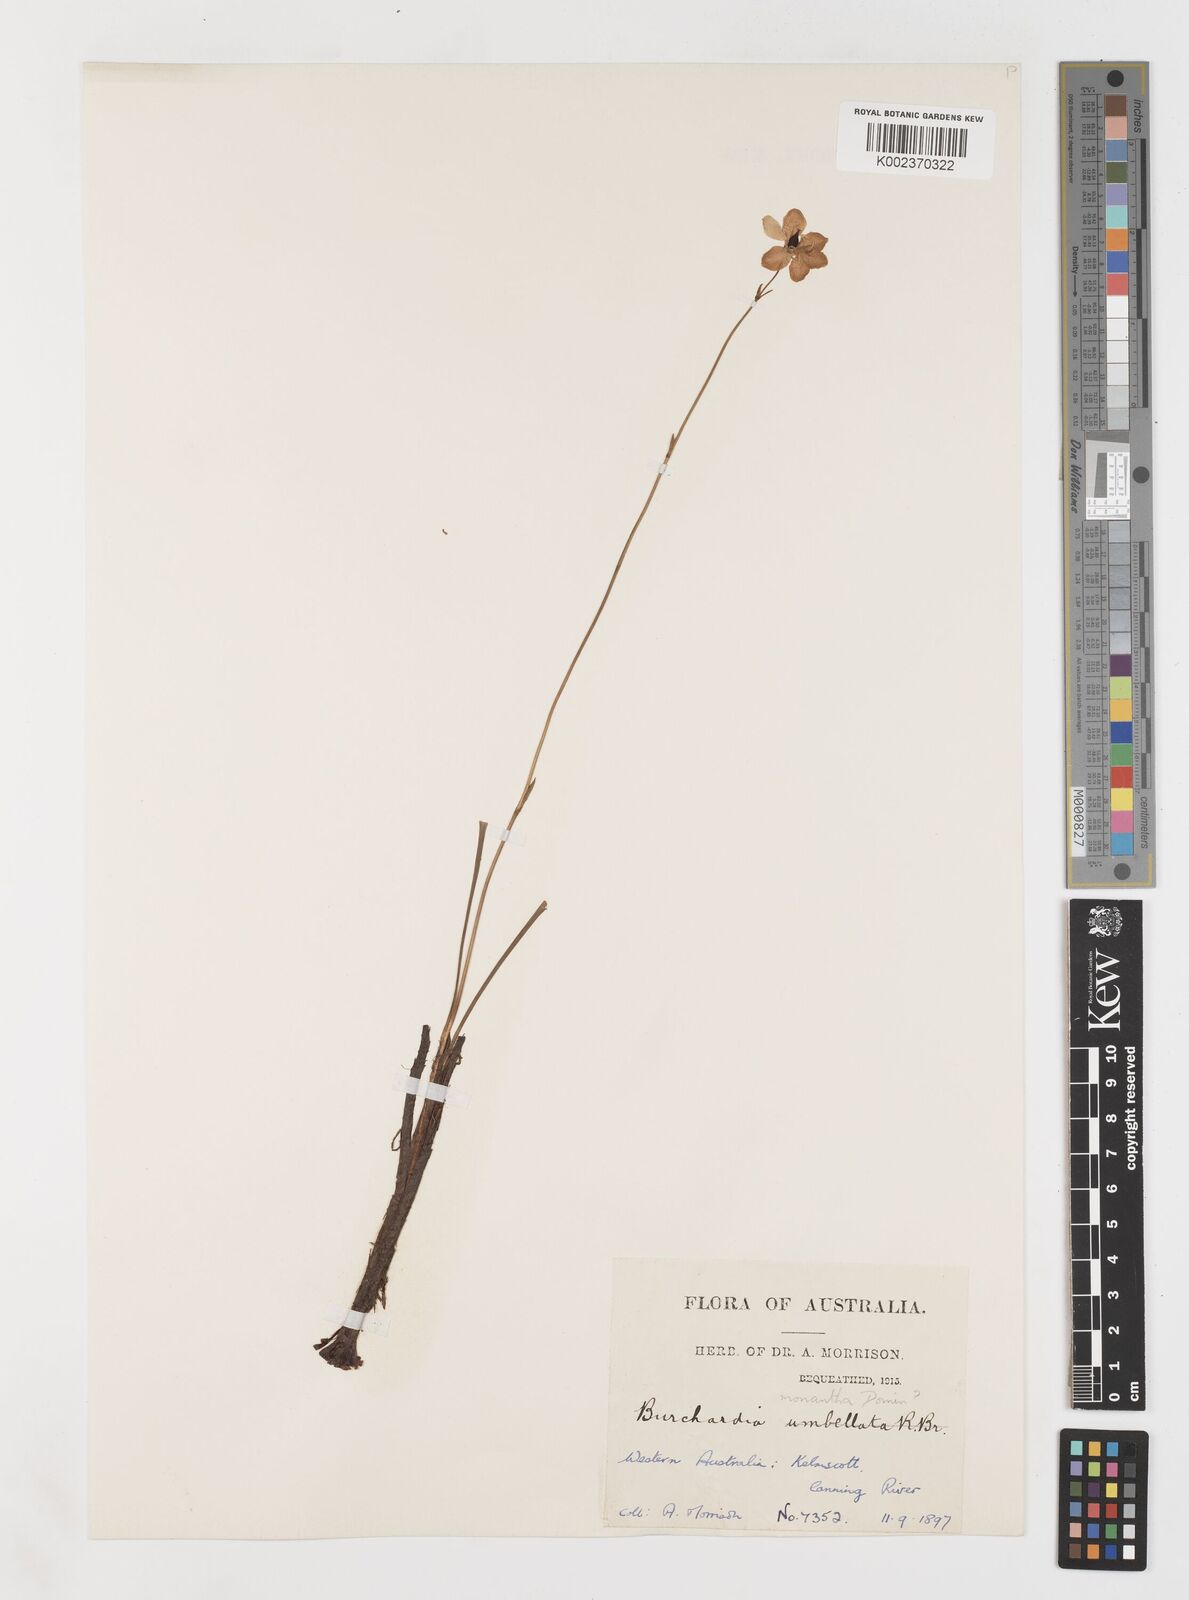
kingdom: Plantae
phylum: Tracheophyta
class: Liliopsida
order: Liliales
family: Colchicaceae
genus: Burchardia
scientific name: Burchardia monantha
